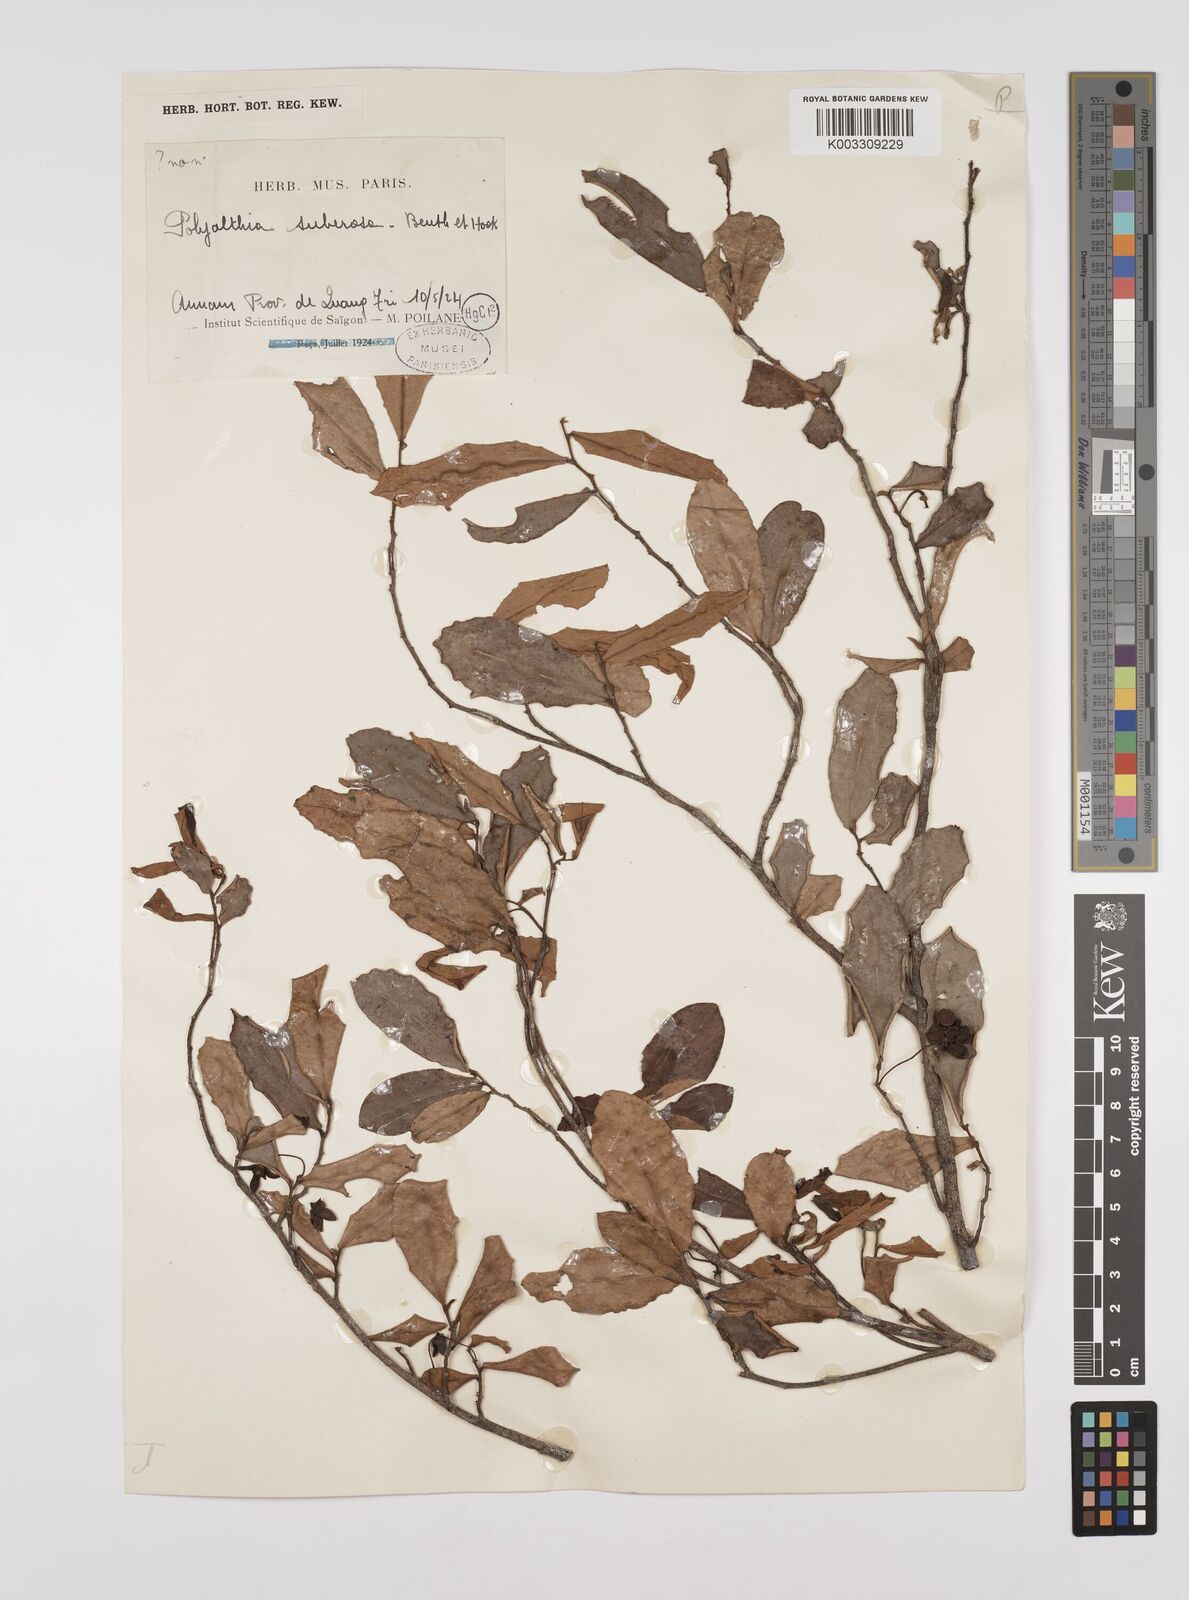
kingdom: Plantae
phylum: Tracheophyta
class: Magnoliopsida
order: Magnoliales
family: Annonaceae
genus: Polyalthia
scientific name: Polyalthia suberosa
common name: Polyalthia plant
